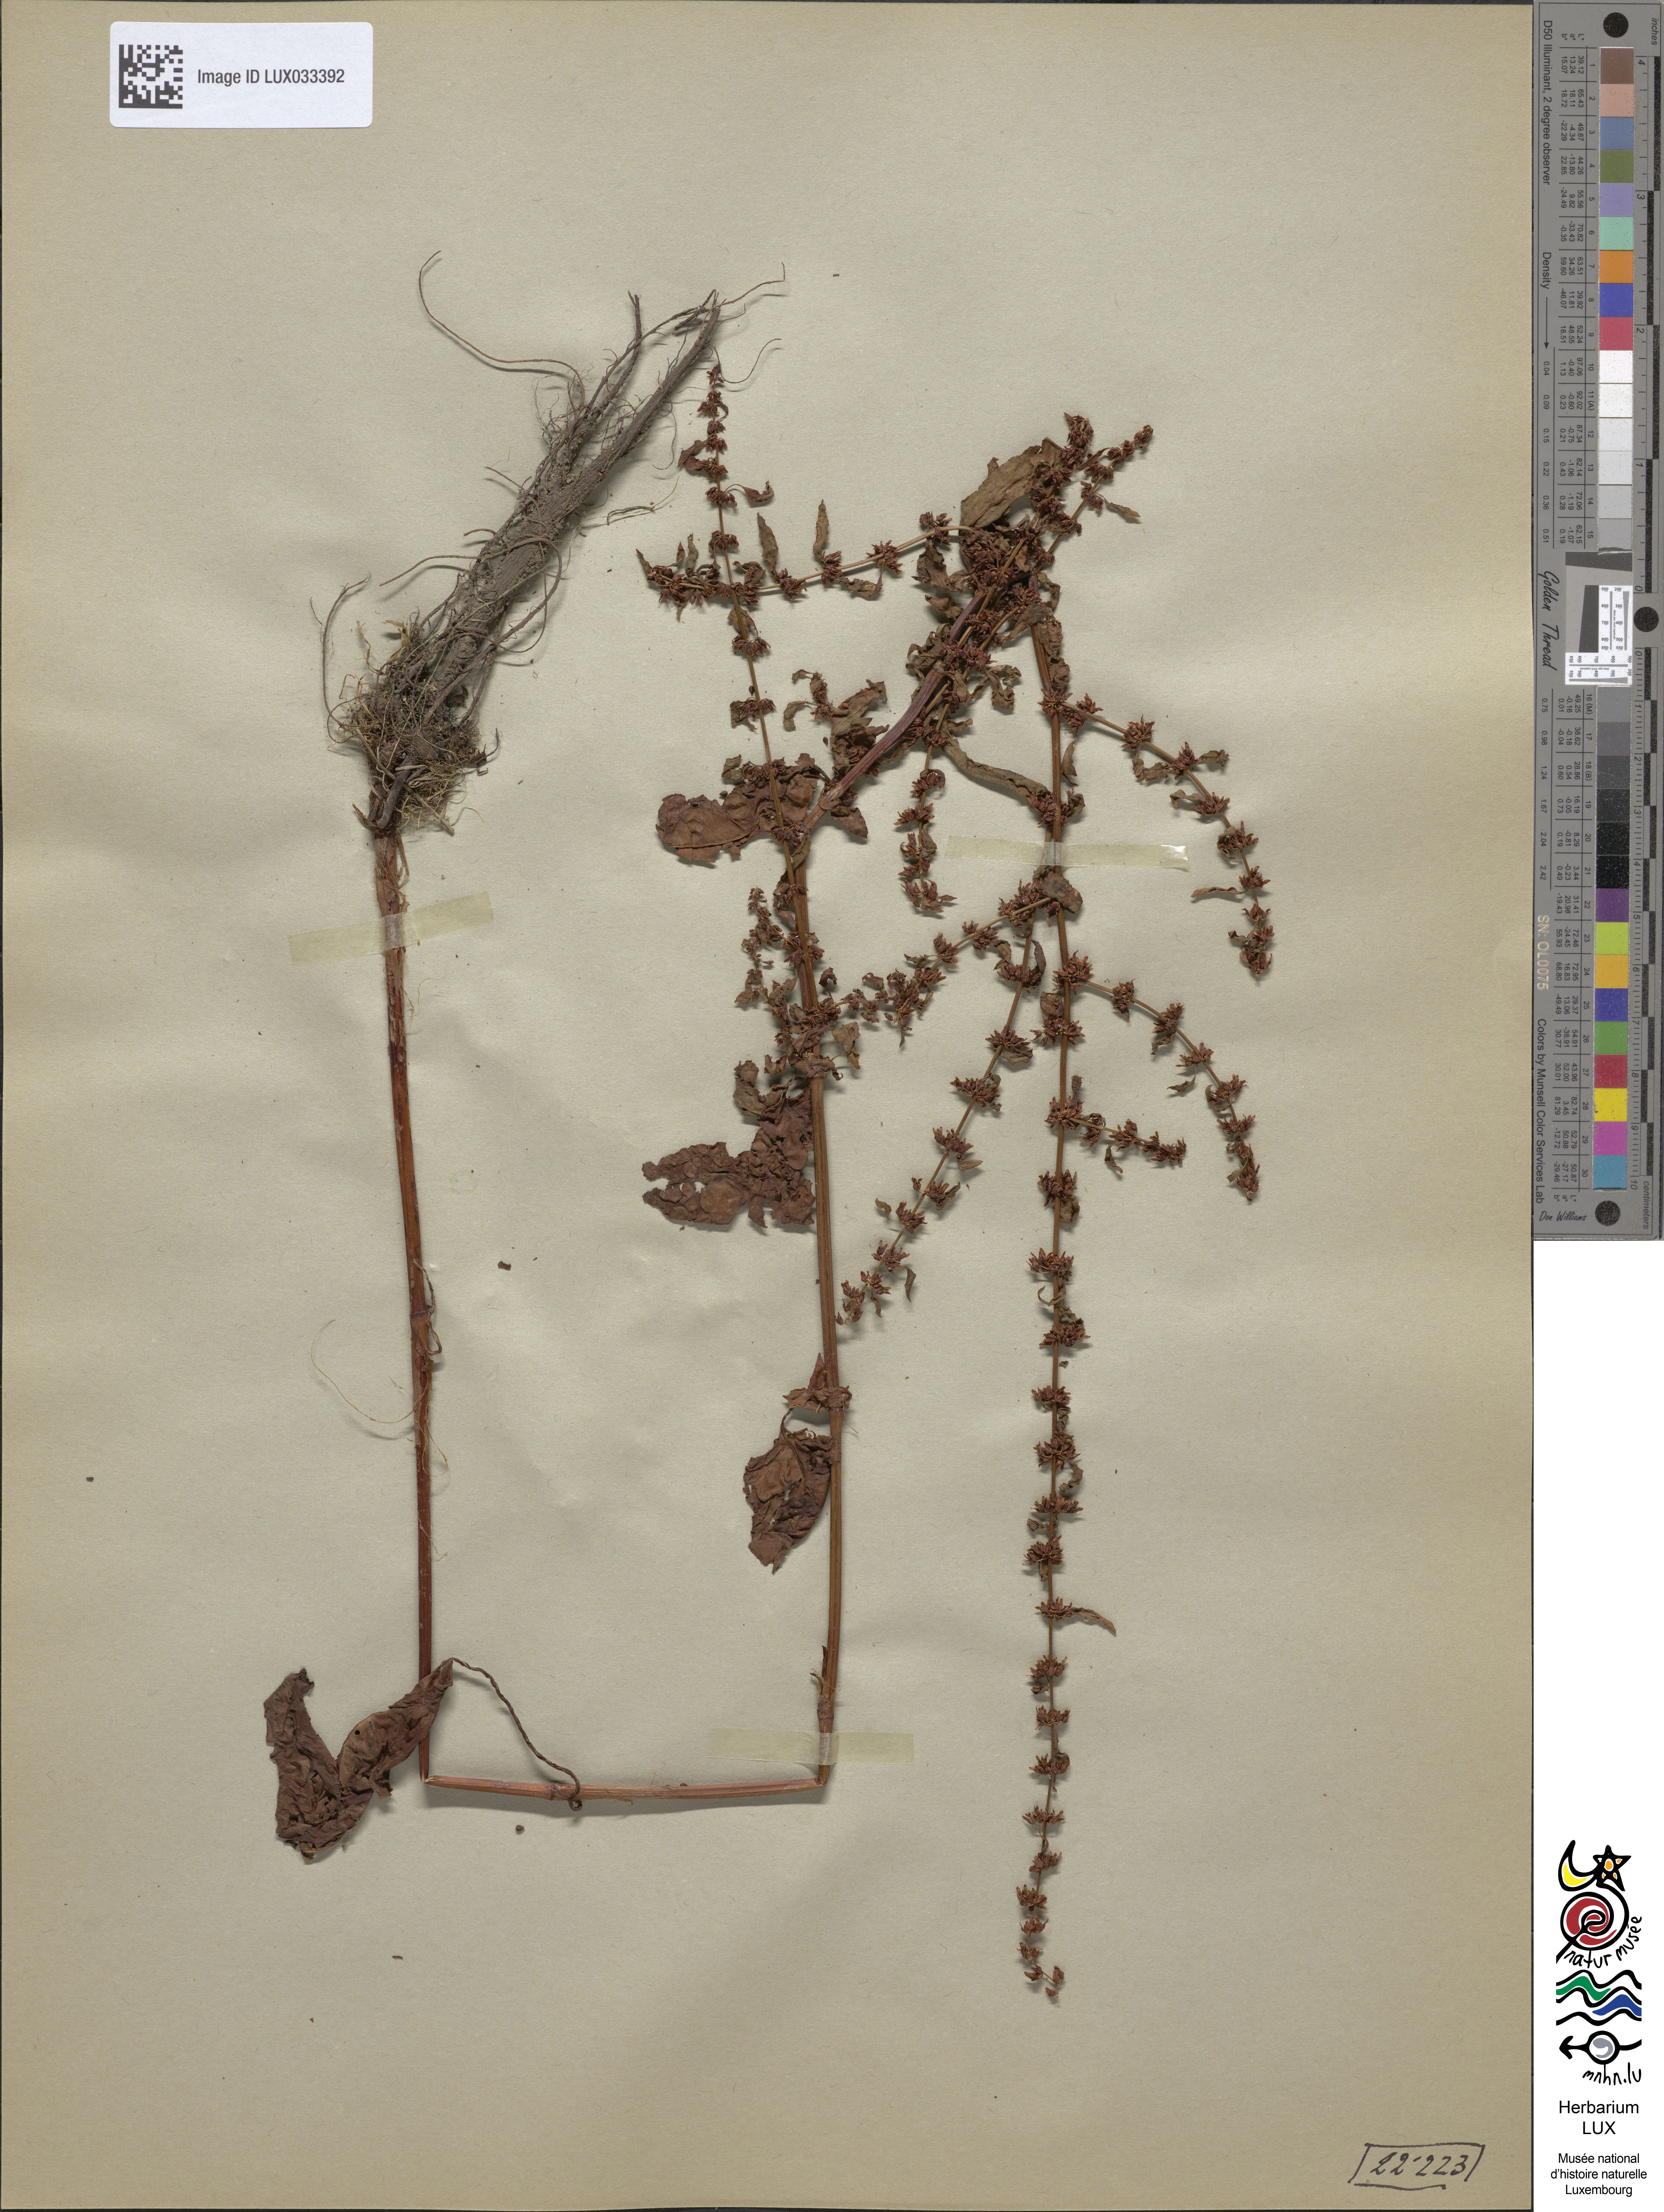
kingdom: Plantae
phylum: Tracheophyta
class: Magnoliopsida
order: Caryophyllales
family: Polygonaceae
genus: Rumex
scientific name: Rumex conglomeratus
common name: Clustered dock
